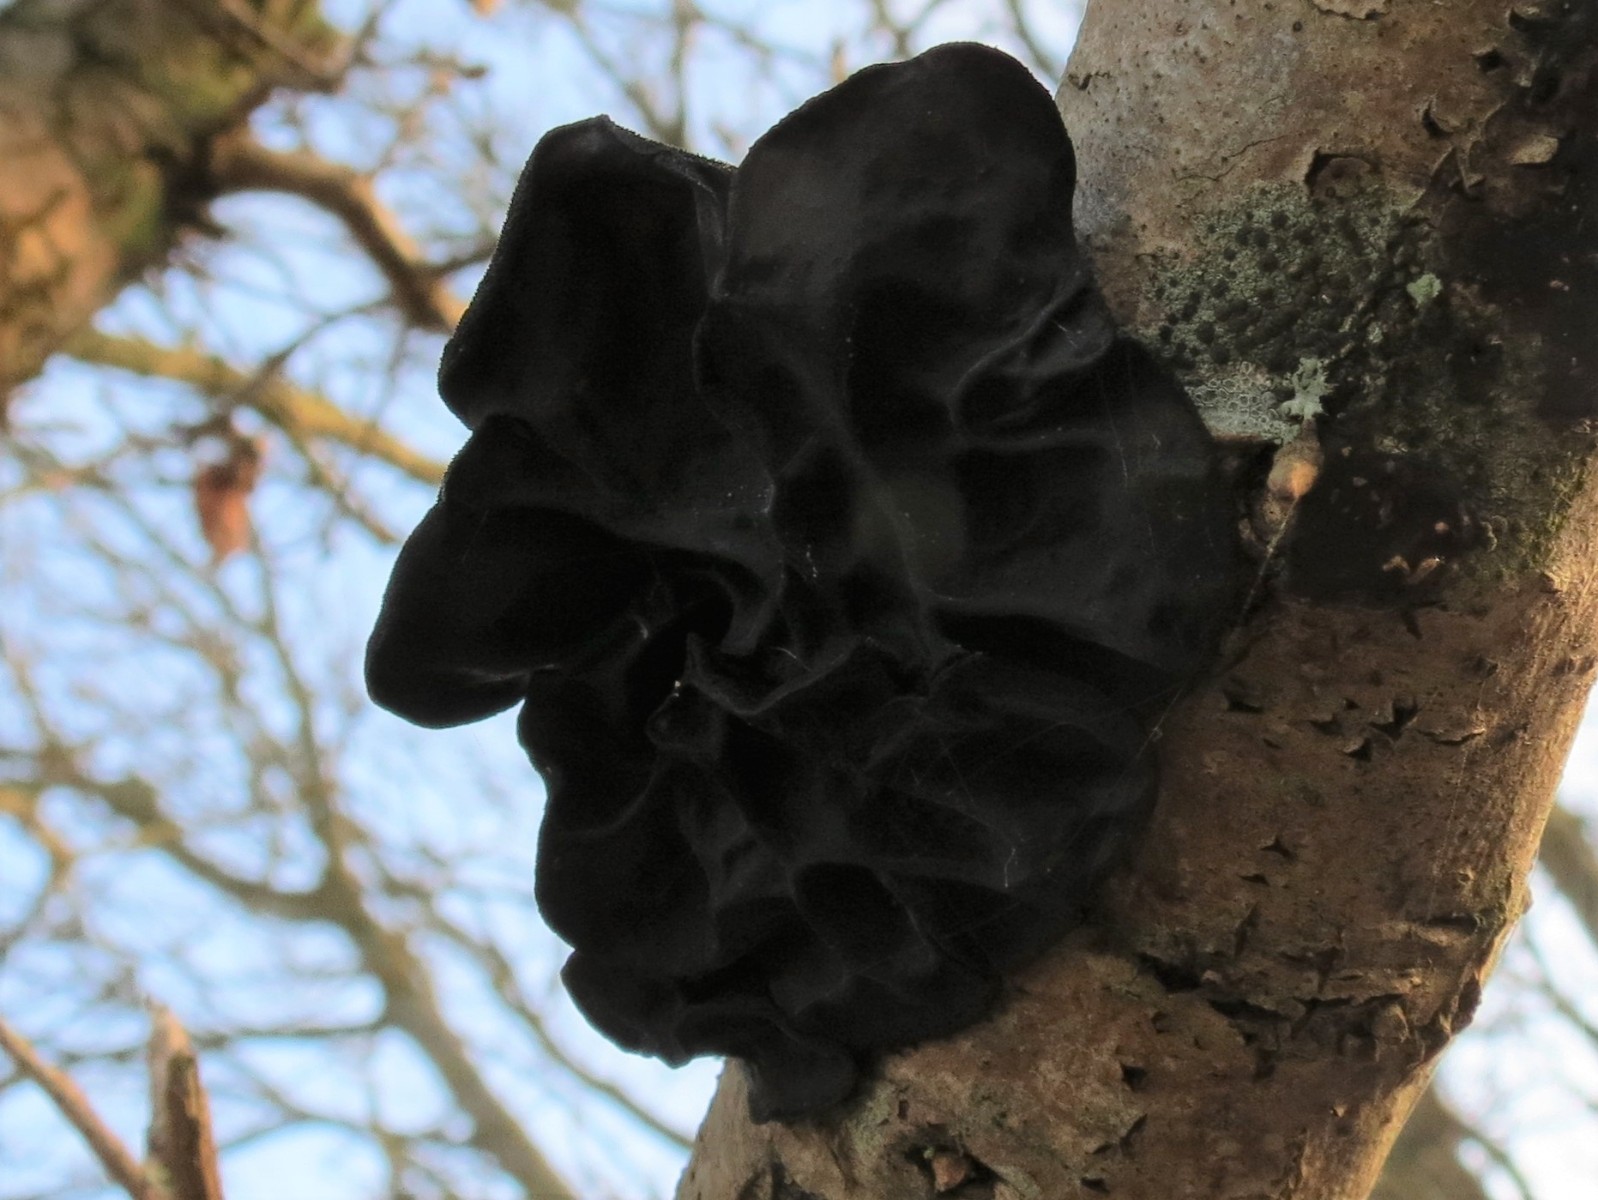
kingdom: Fungi
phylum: Basidiomycota
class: Agaricomycetes
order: Auriculariales
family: Auriculariaceae
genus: Exidia
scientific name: Exidia glandulosa
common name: ege-bævretop
